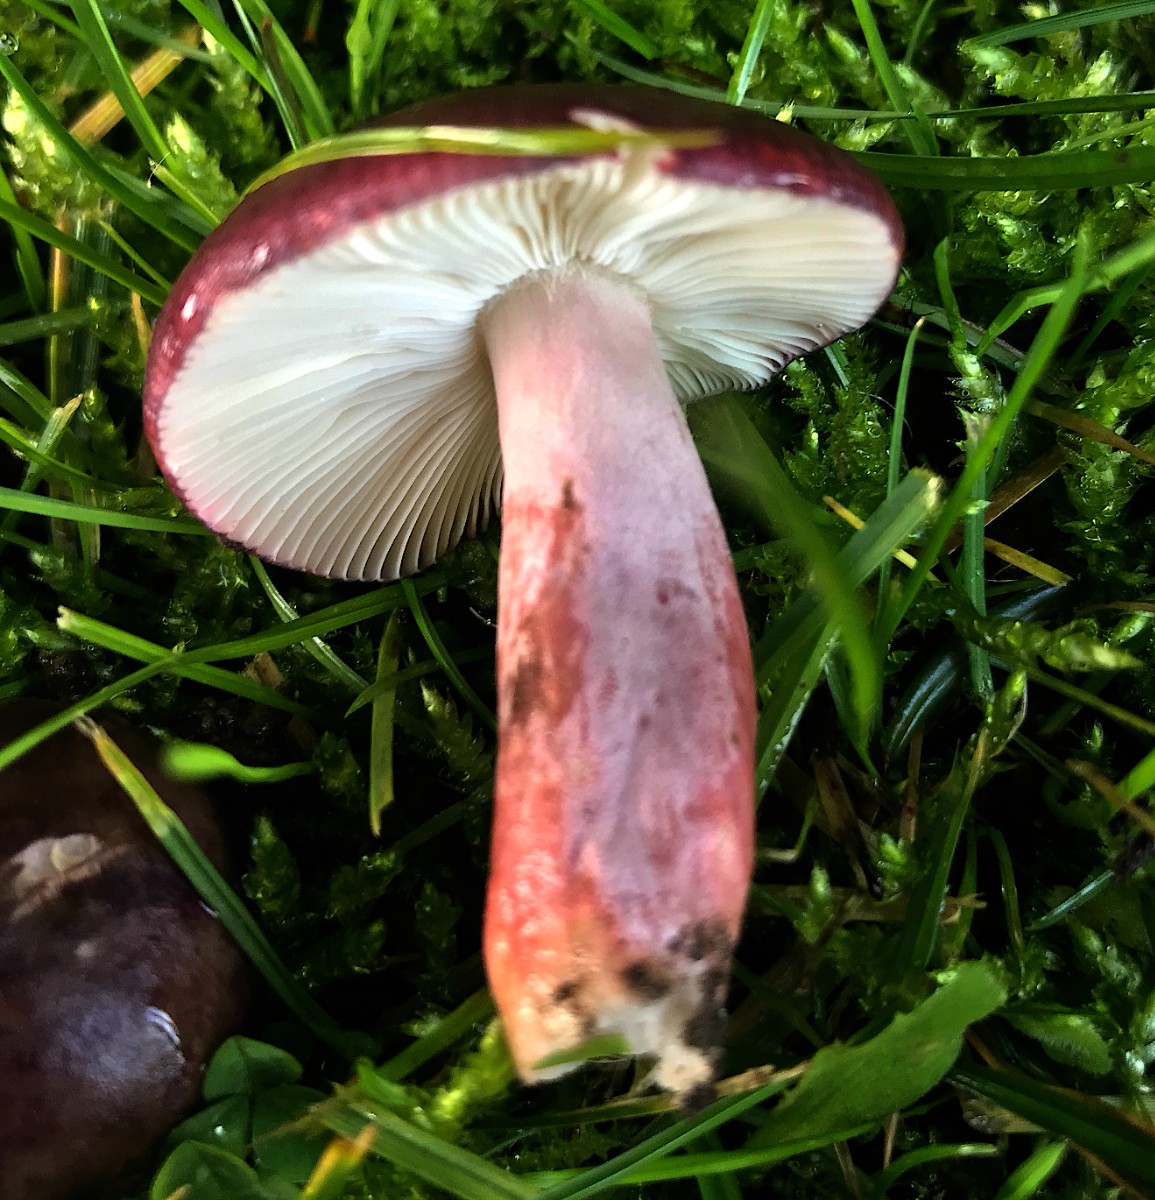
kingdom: Fungi
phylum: Basidiomycota
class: Agaricomycetes
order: Russulales
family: Russulaceae
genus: Russula
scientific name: Russula queletii
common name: Quélets skørhat
